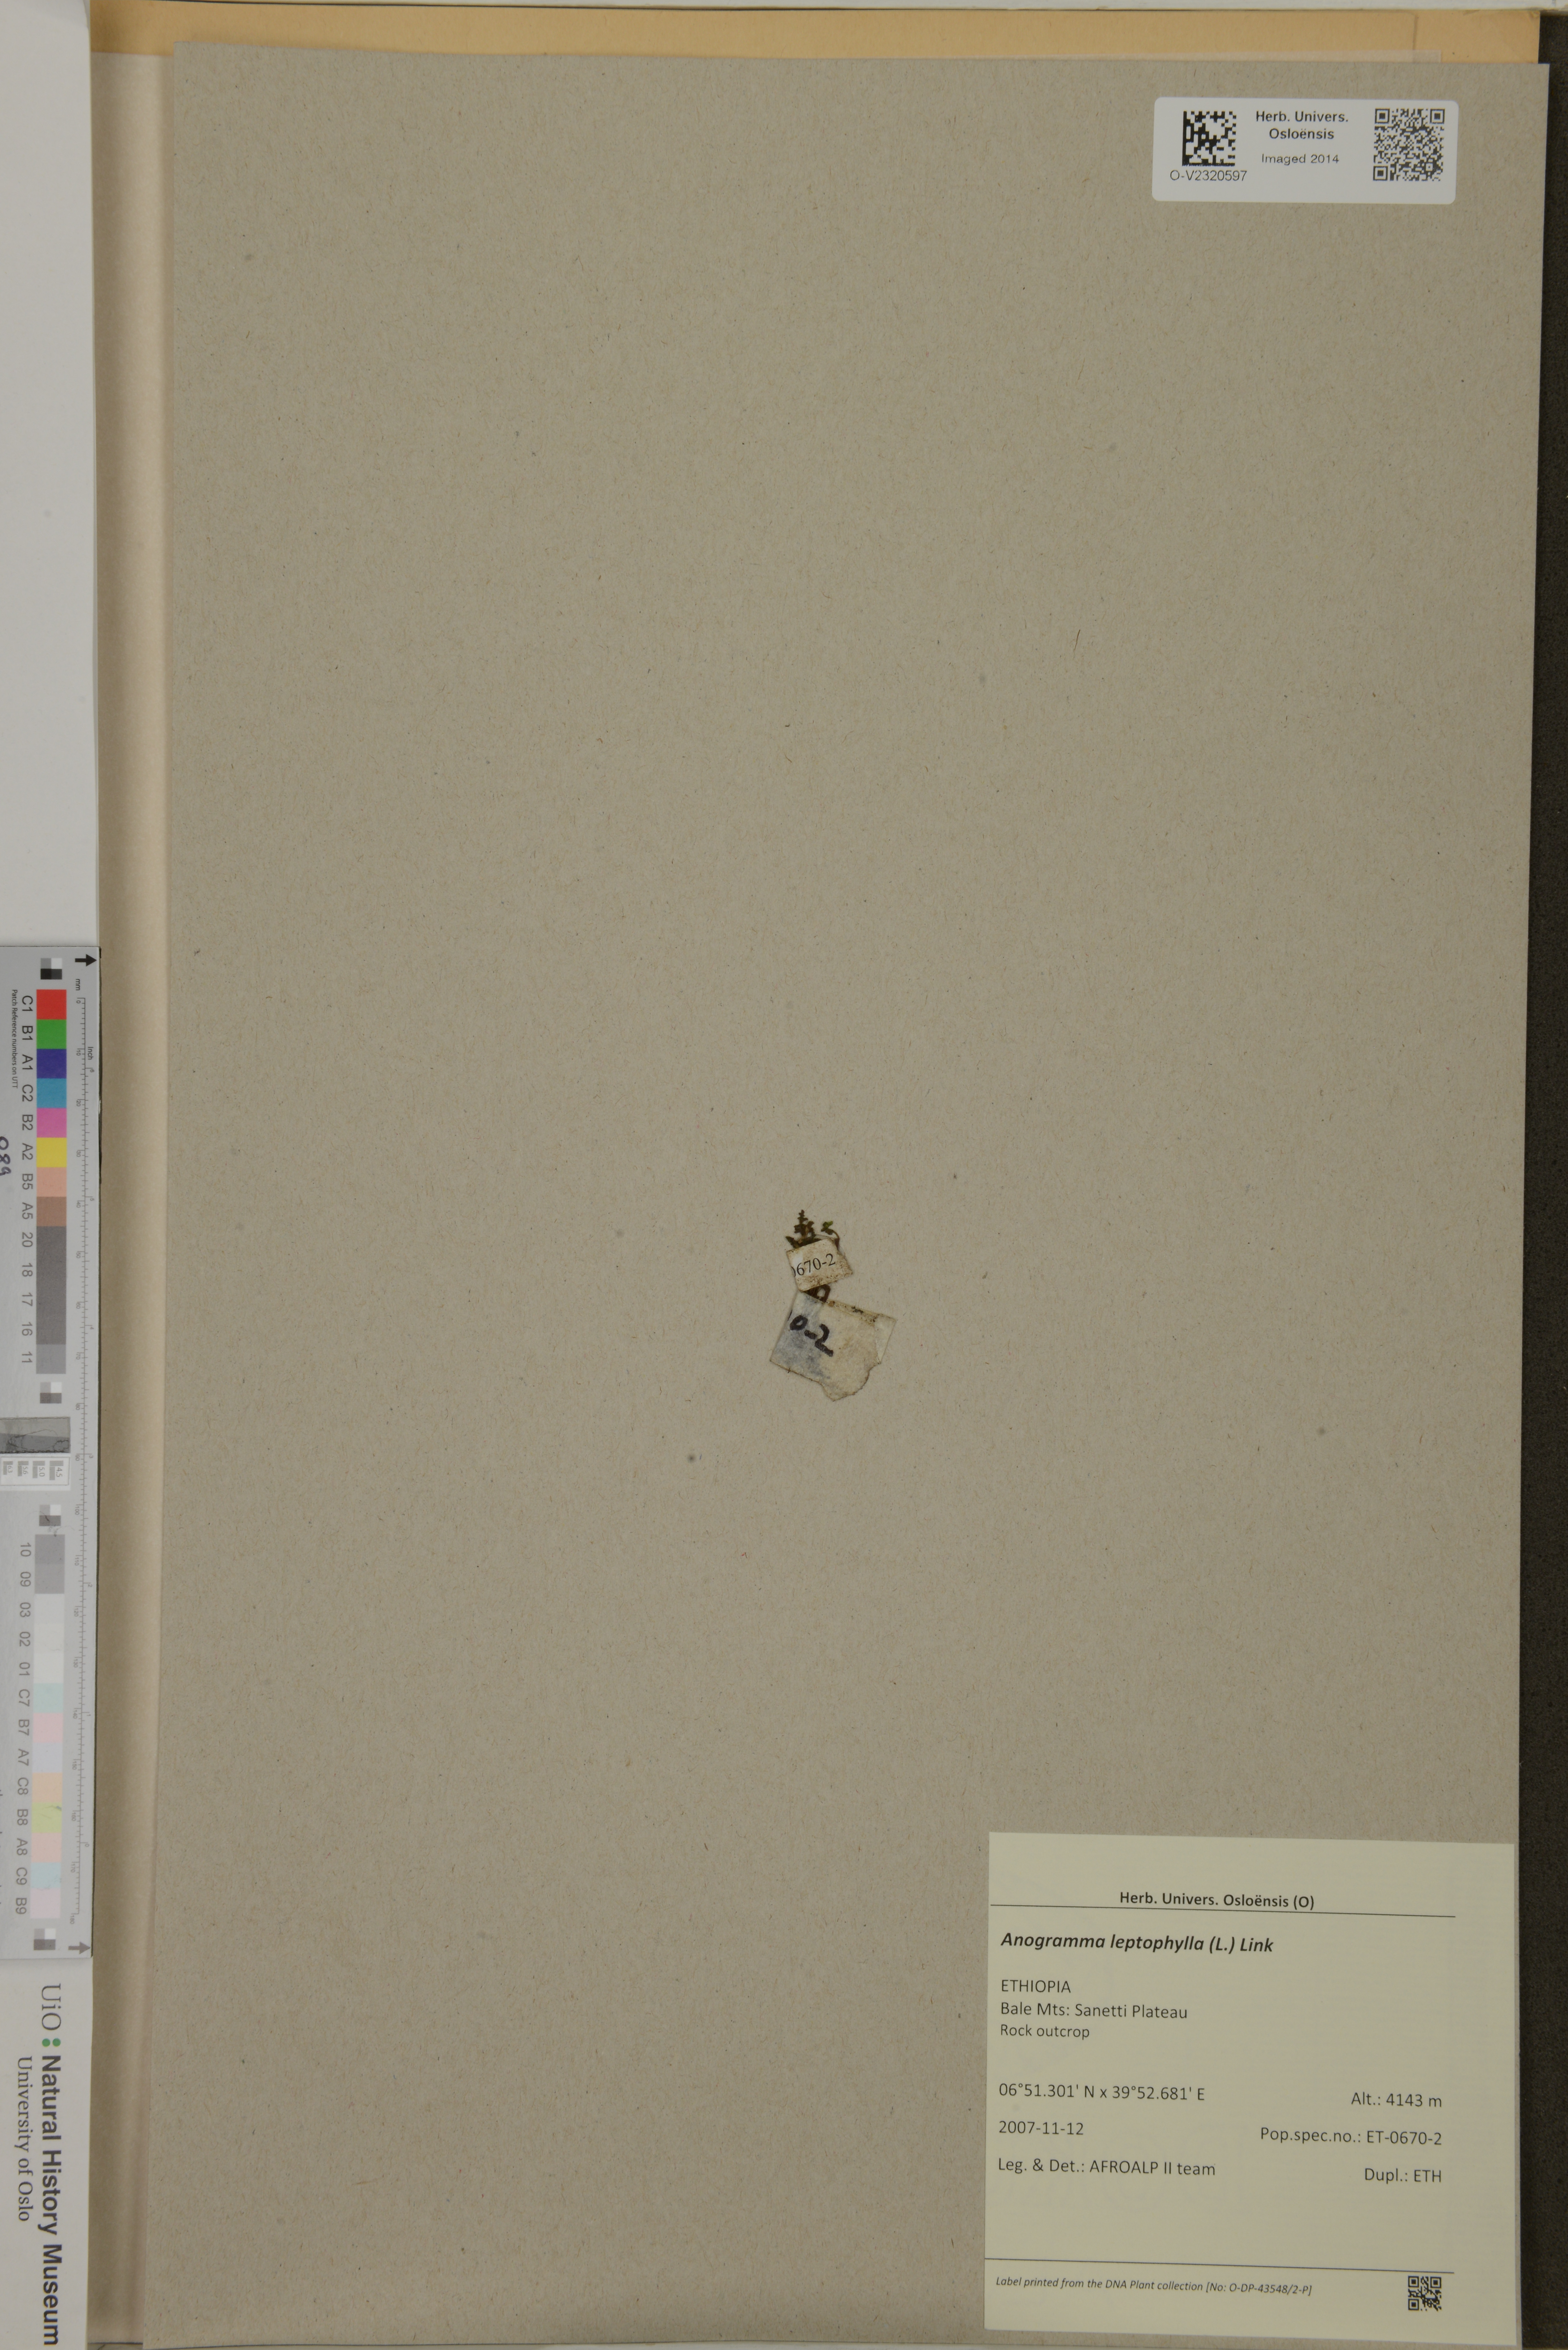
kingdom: Plantae
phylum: Tracheophyta
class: Polypodiopsida
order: Polypodiales
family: Pteridaceae
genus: Anogramma
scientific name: Anogramma leptophylla
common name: Jersey fern
